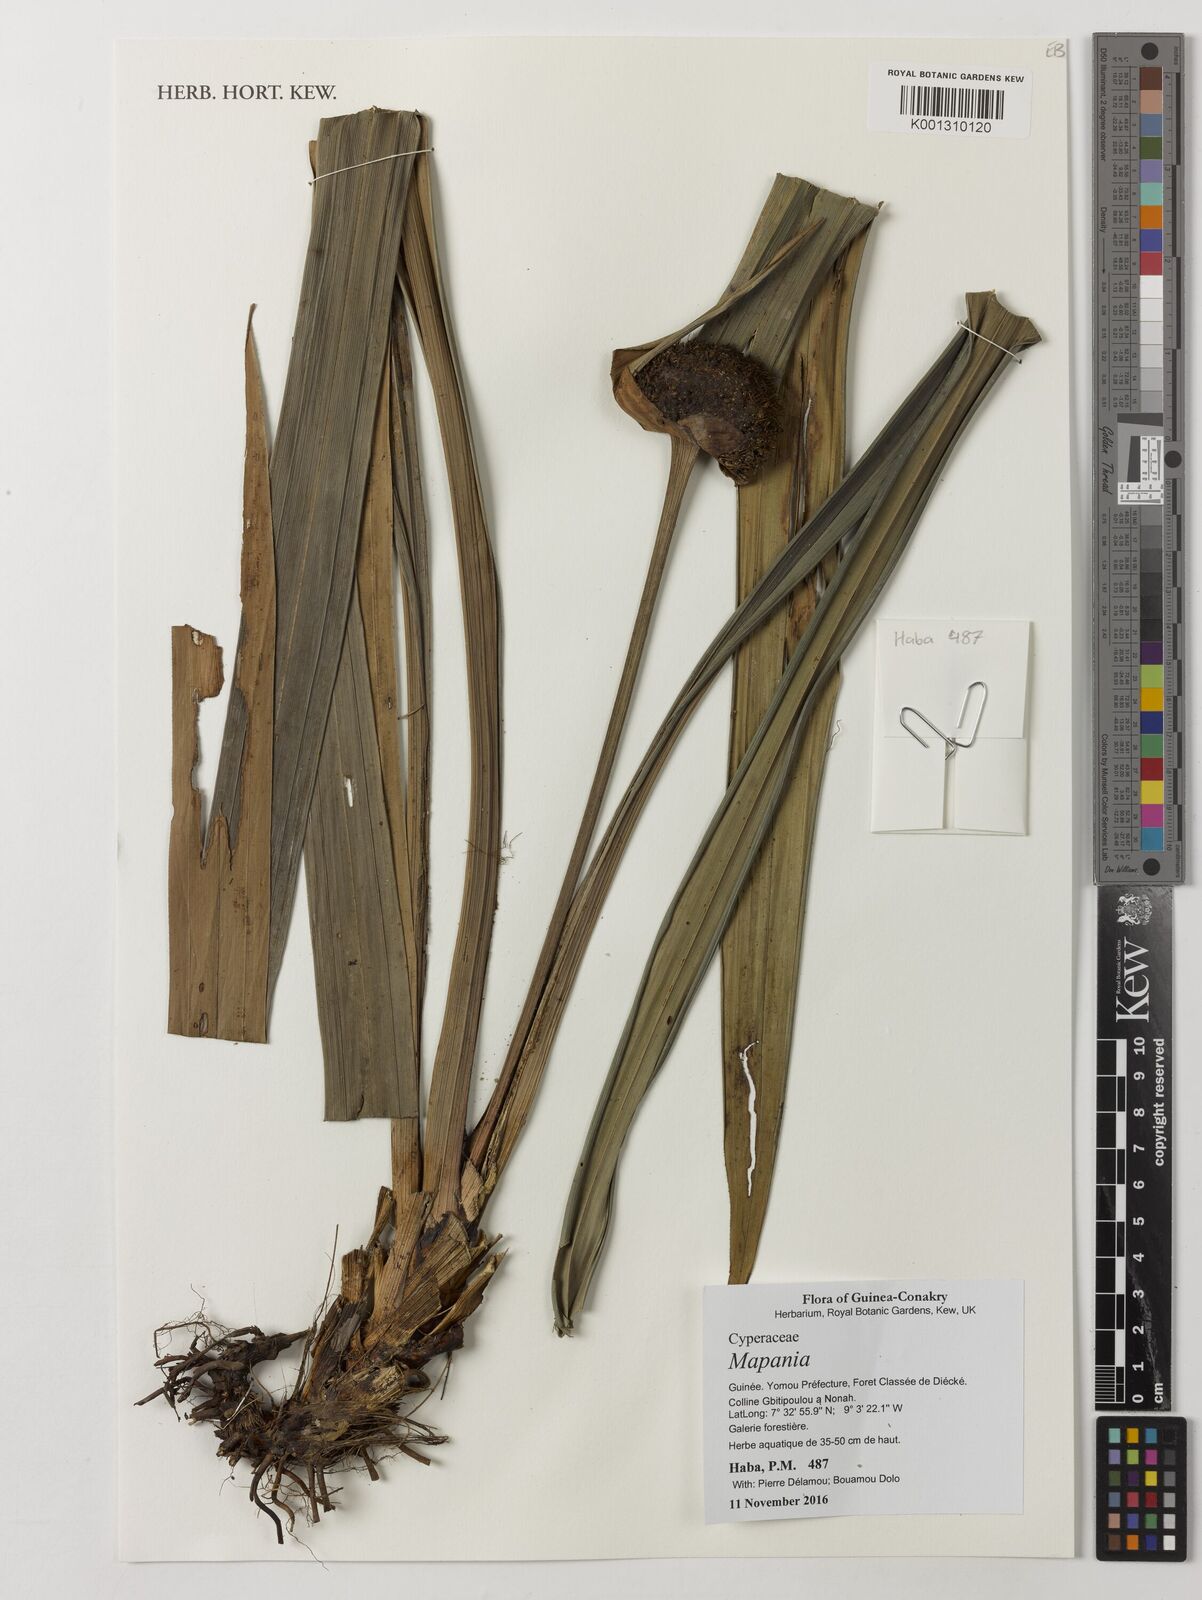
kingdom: Plantae
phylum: Tracheophyta
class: Liliopsida
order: Poales
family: Cyperaceae
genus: Mapania
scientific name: Mapania
